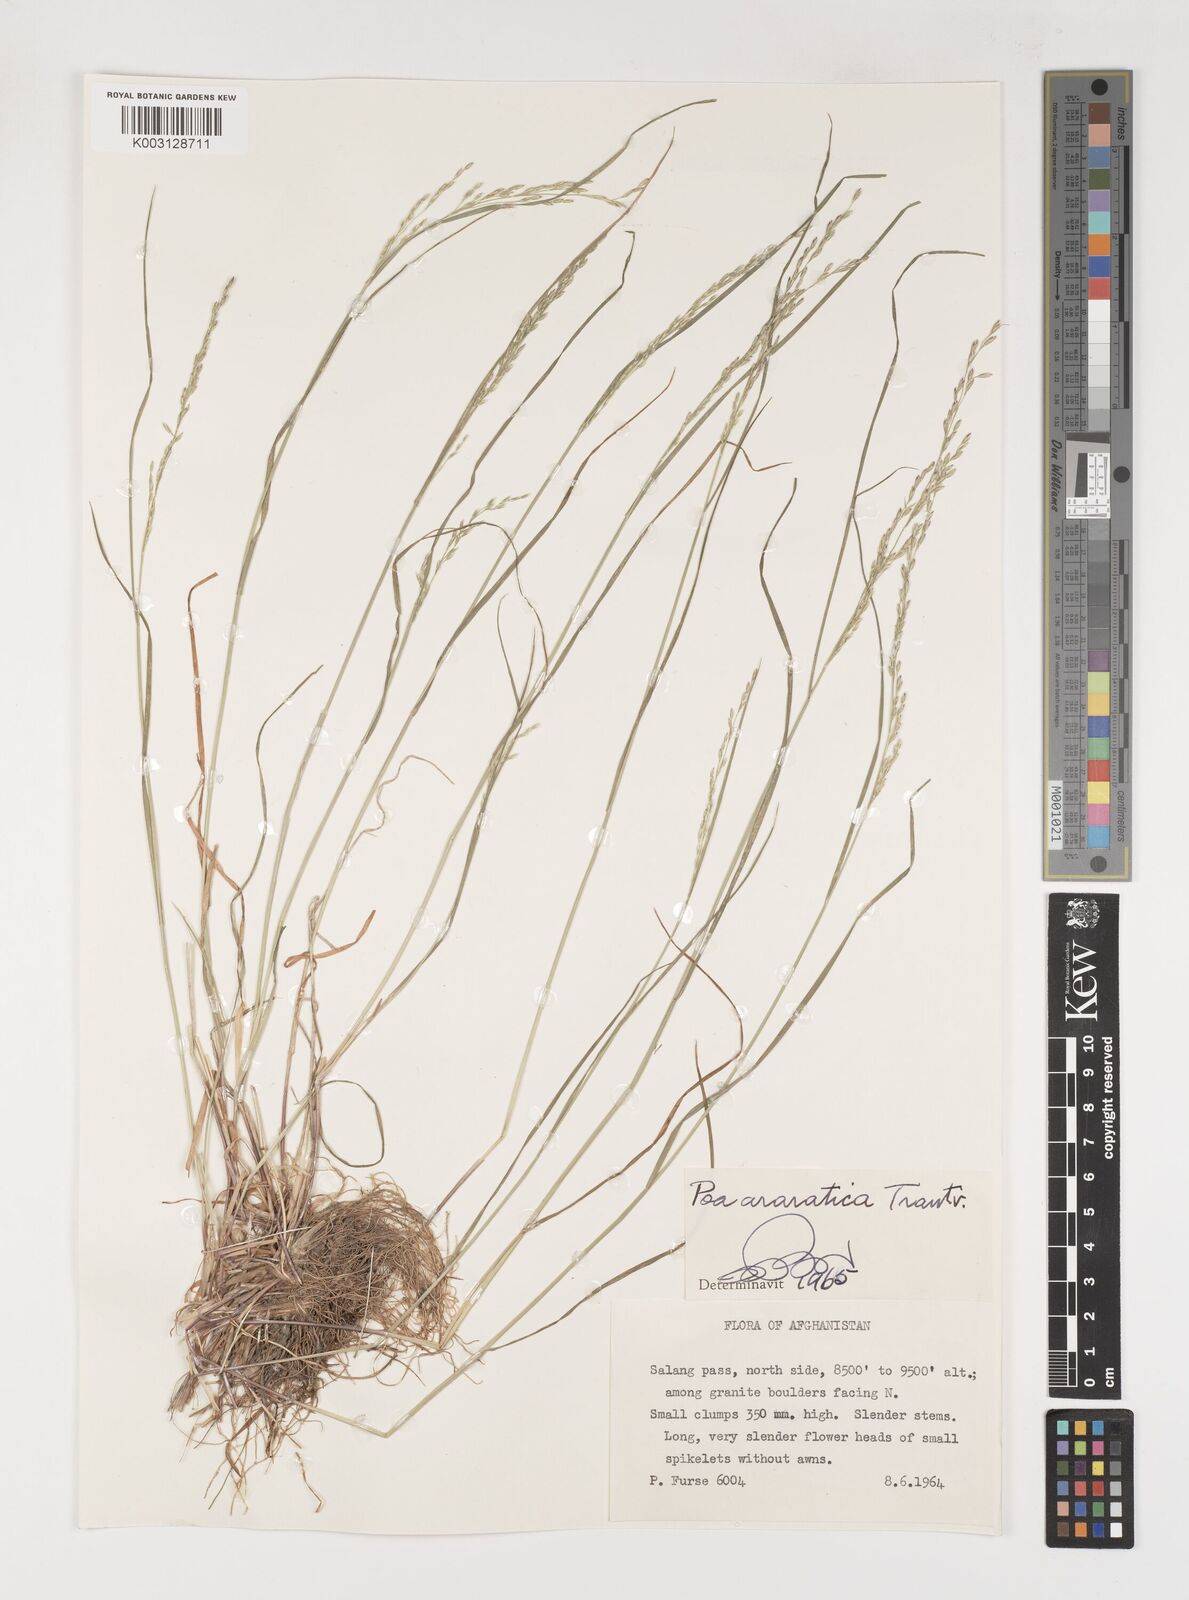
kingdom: Plantae
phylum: Tracheophyta
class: Liliopsida
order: Poales
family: Poaceae
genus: Poa
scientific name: Poa araratica
